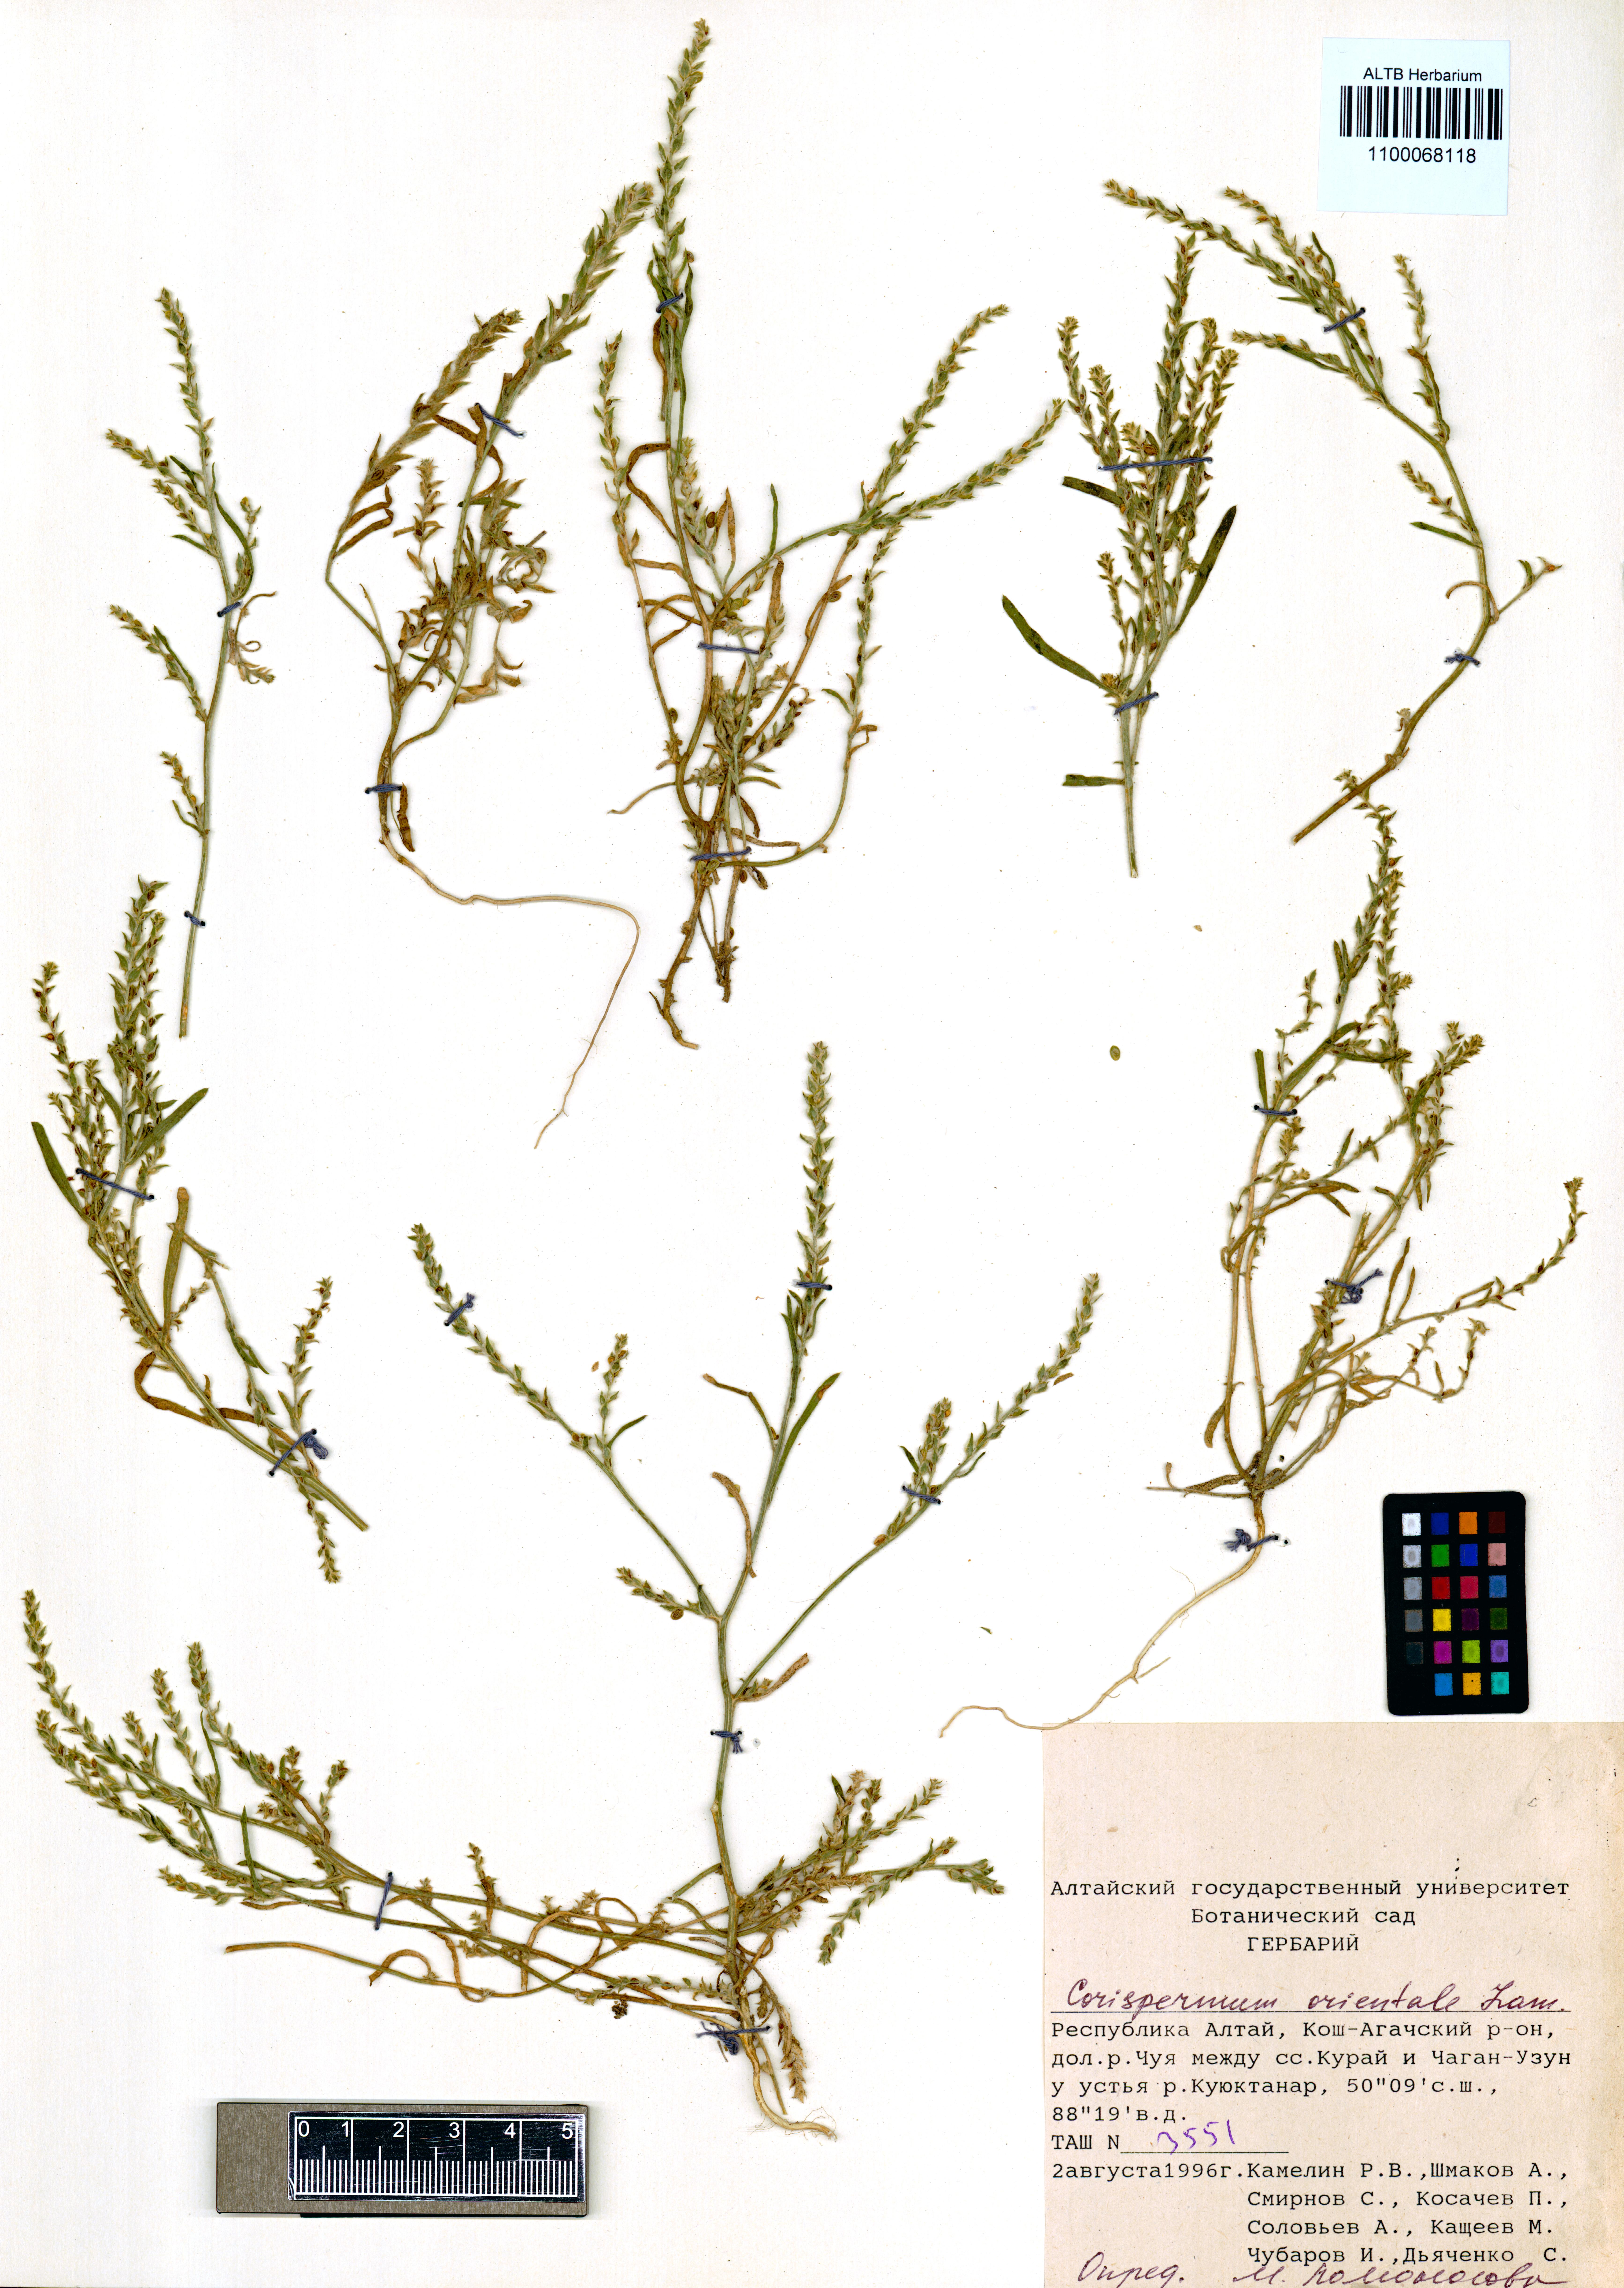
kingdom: Plantae
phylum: Tracheophyta
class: Magnoliopsida
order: Caryophyllales
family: Amaranthaceae
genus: Corispermum
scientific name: Corispermum aralocaspicum
